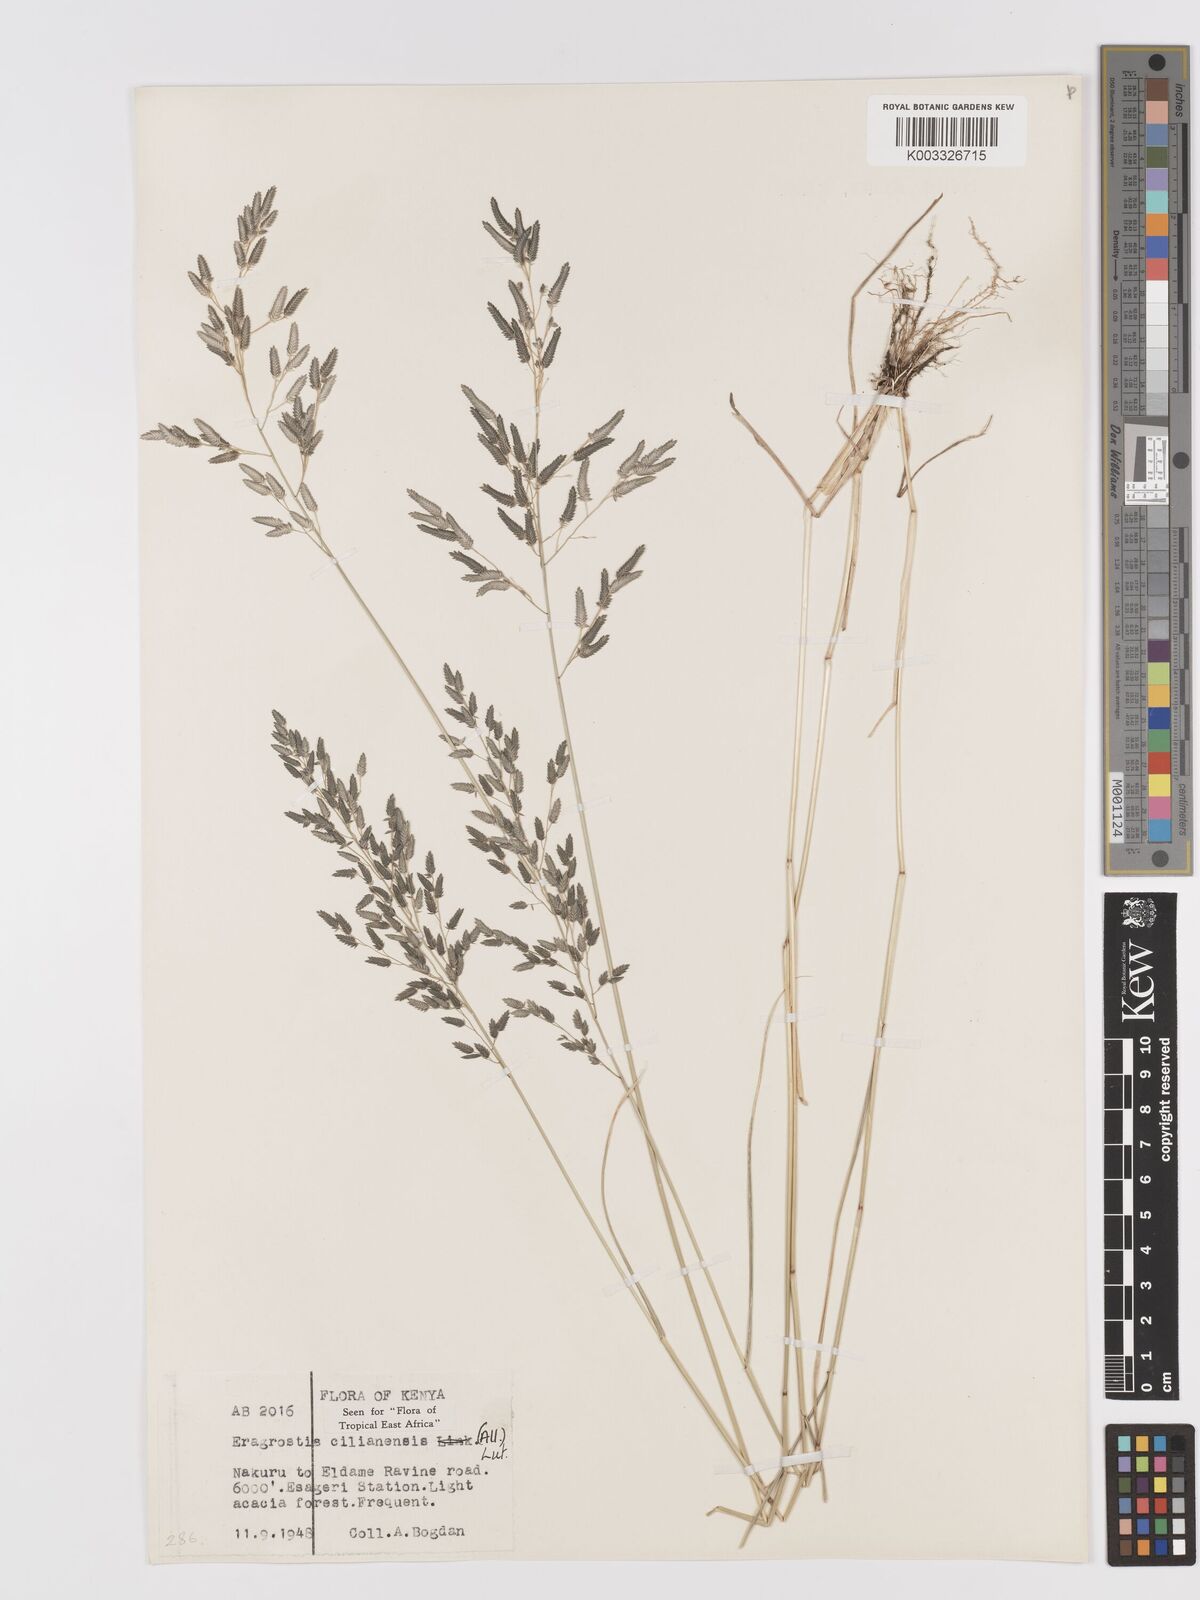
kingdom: Plantae
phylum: Tracheophyta
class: Liliopsida
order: Poales
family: Poaceae
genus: Eragrostis
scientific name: Eragrostis cilianensis
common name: Stinkgrass
